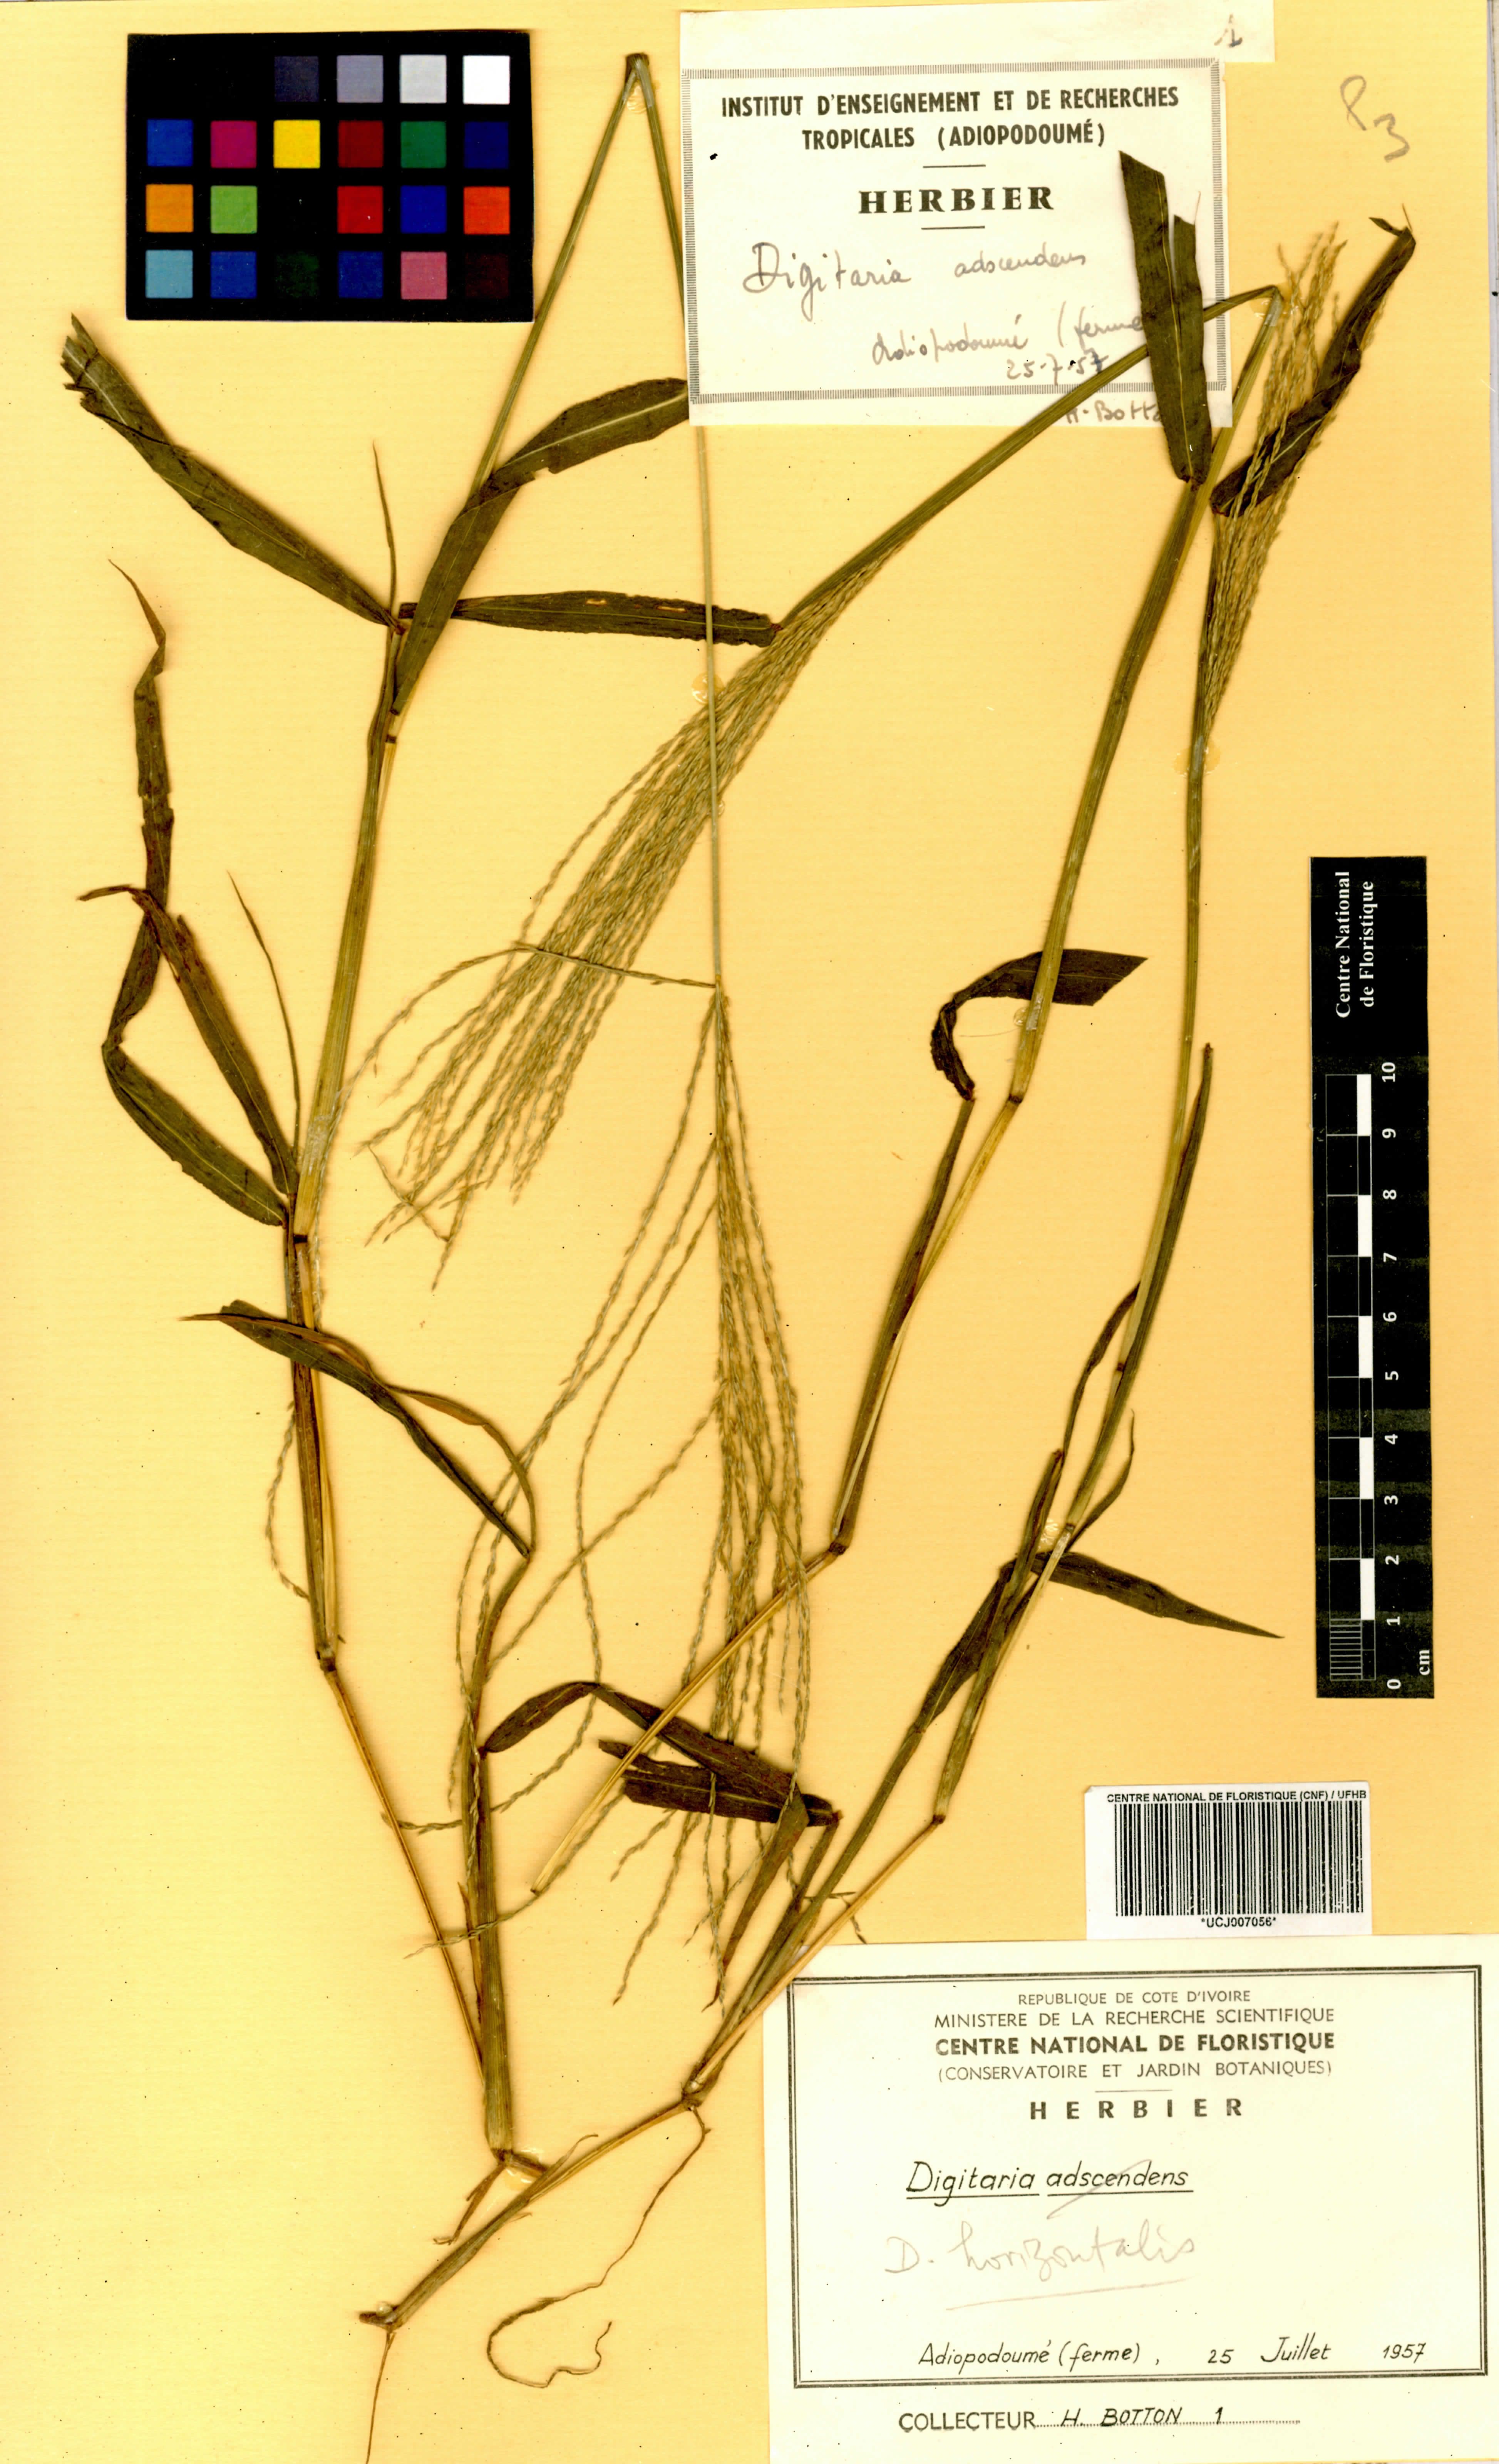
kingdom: Plantae
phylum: Tracheophyta
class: Liliopsida
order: Poales
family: Poaceae
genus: Digitaria
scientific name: Digitaria horizontalis
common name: Jamaican crabgrass
